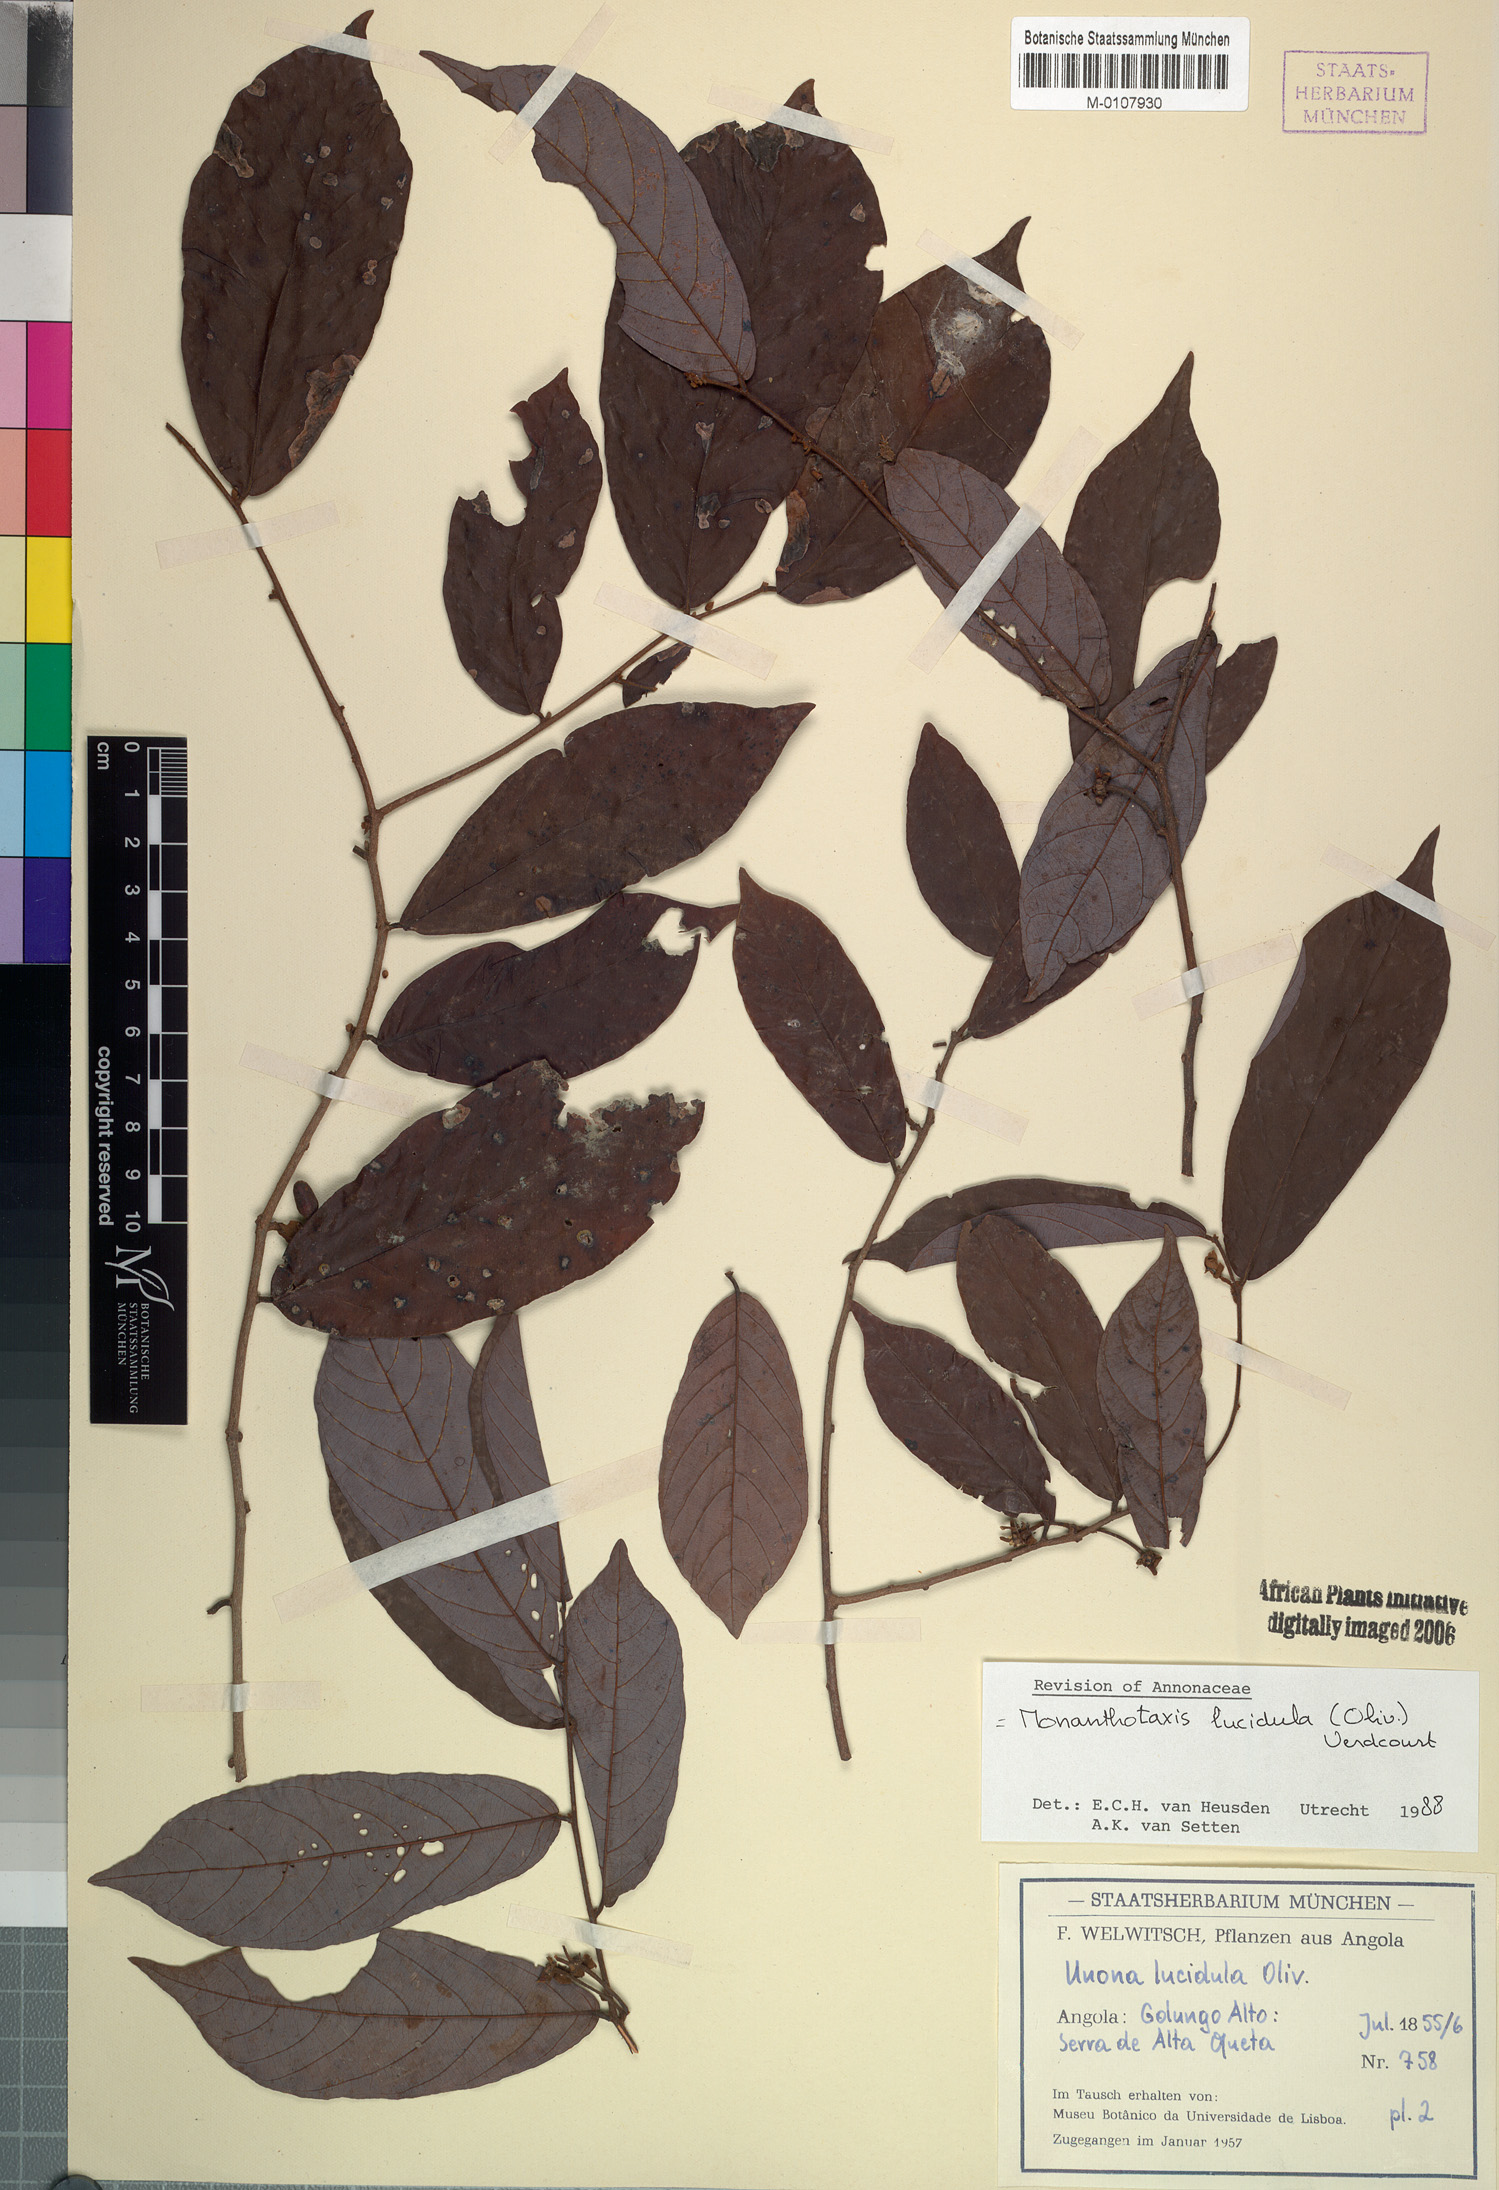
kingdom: Plantae
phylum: Tracheophyta
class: Magnoliopsida
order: Magnoliales
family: Annonaceae
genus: Monanthotaxis
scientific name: Monanthotaxis lucidula
